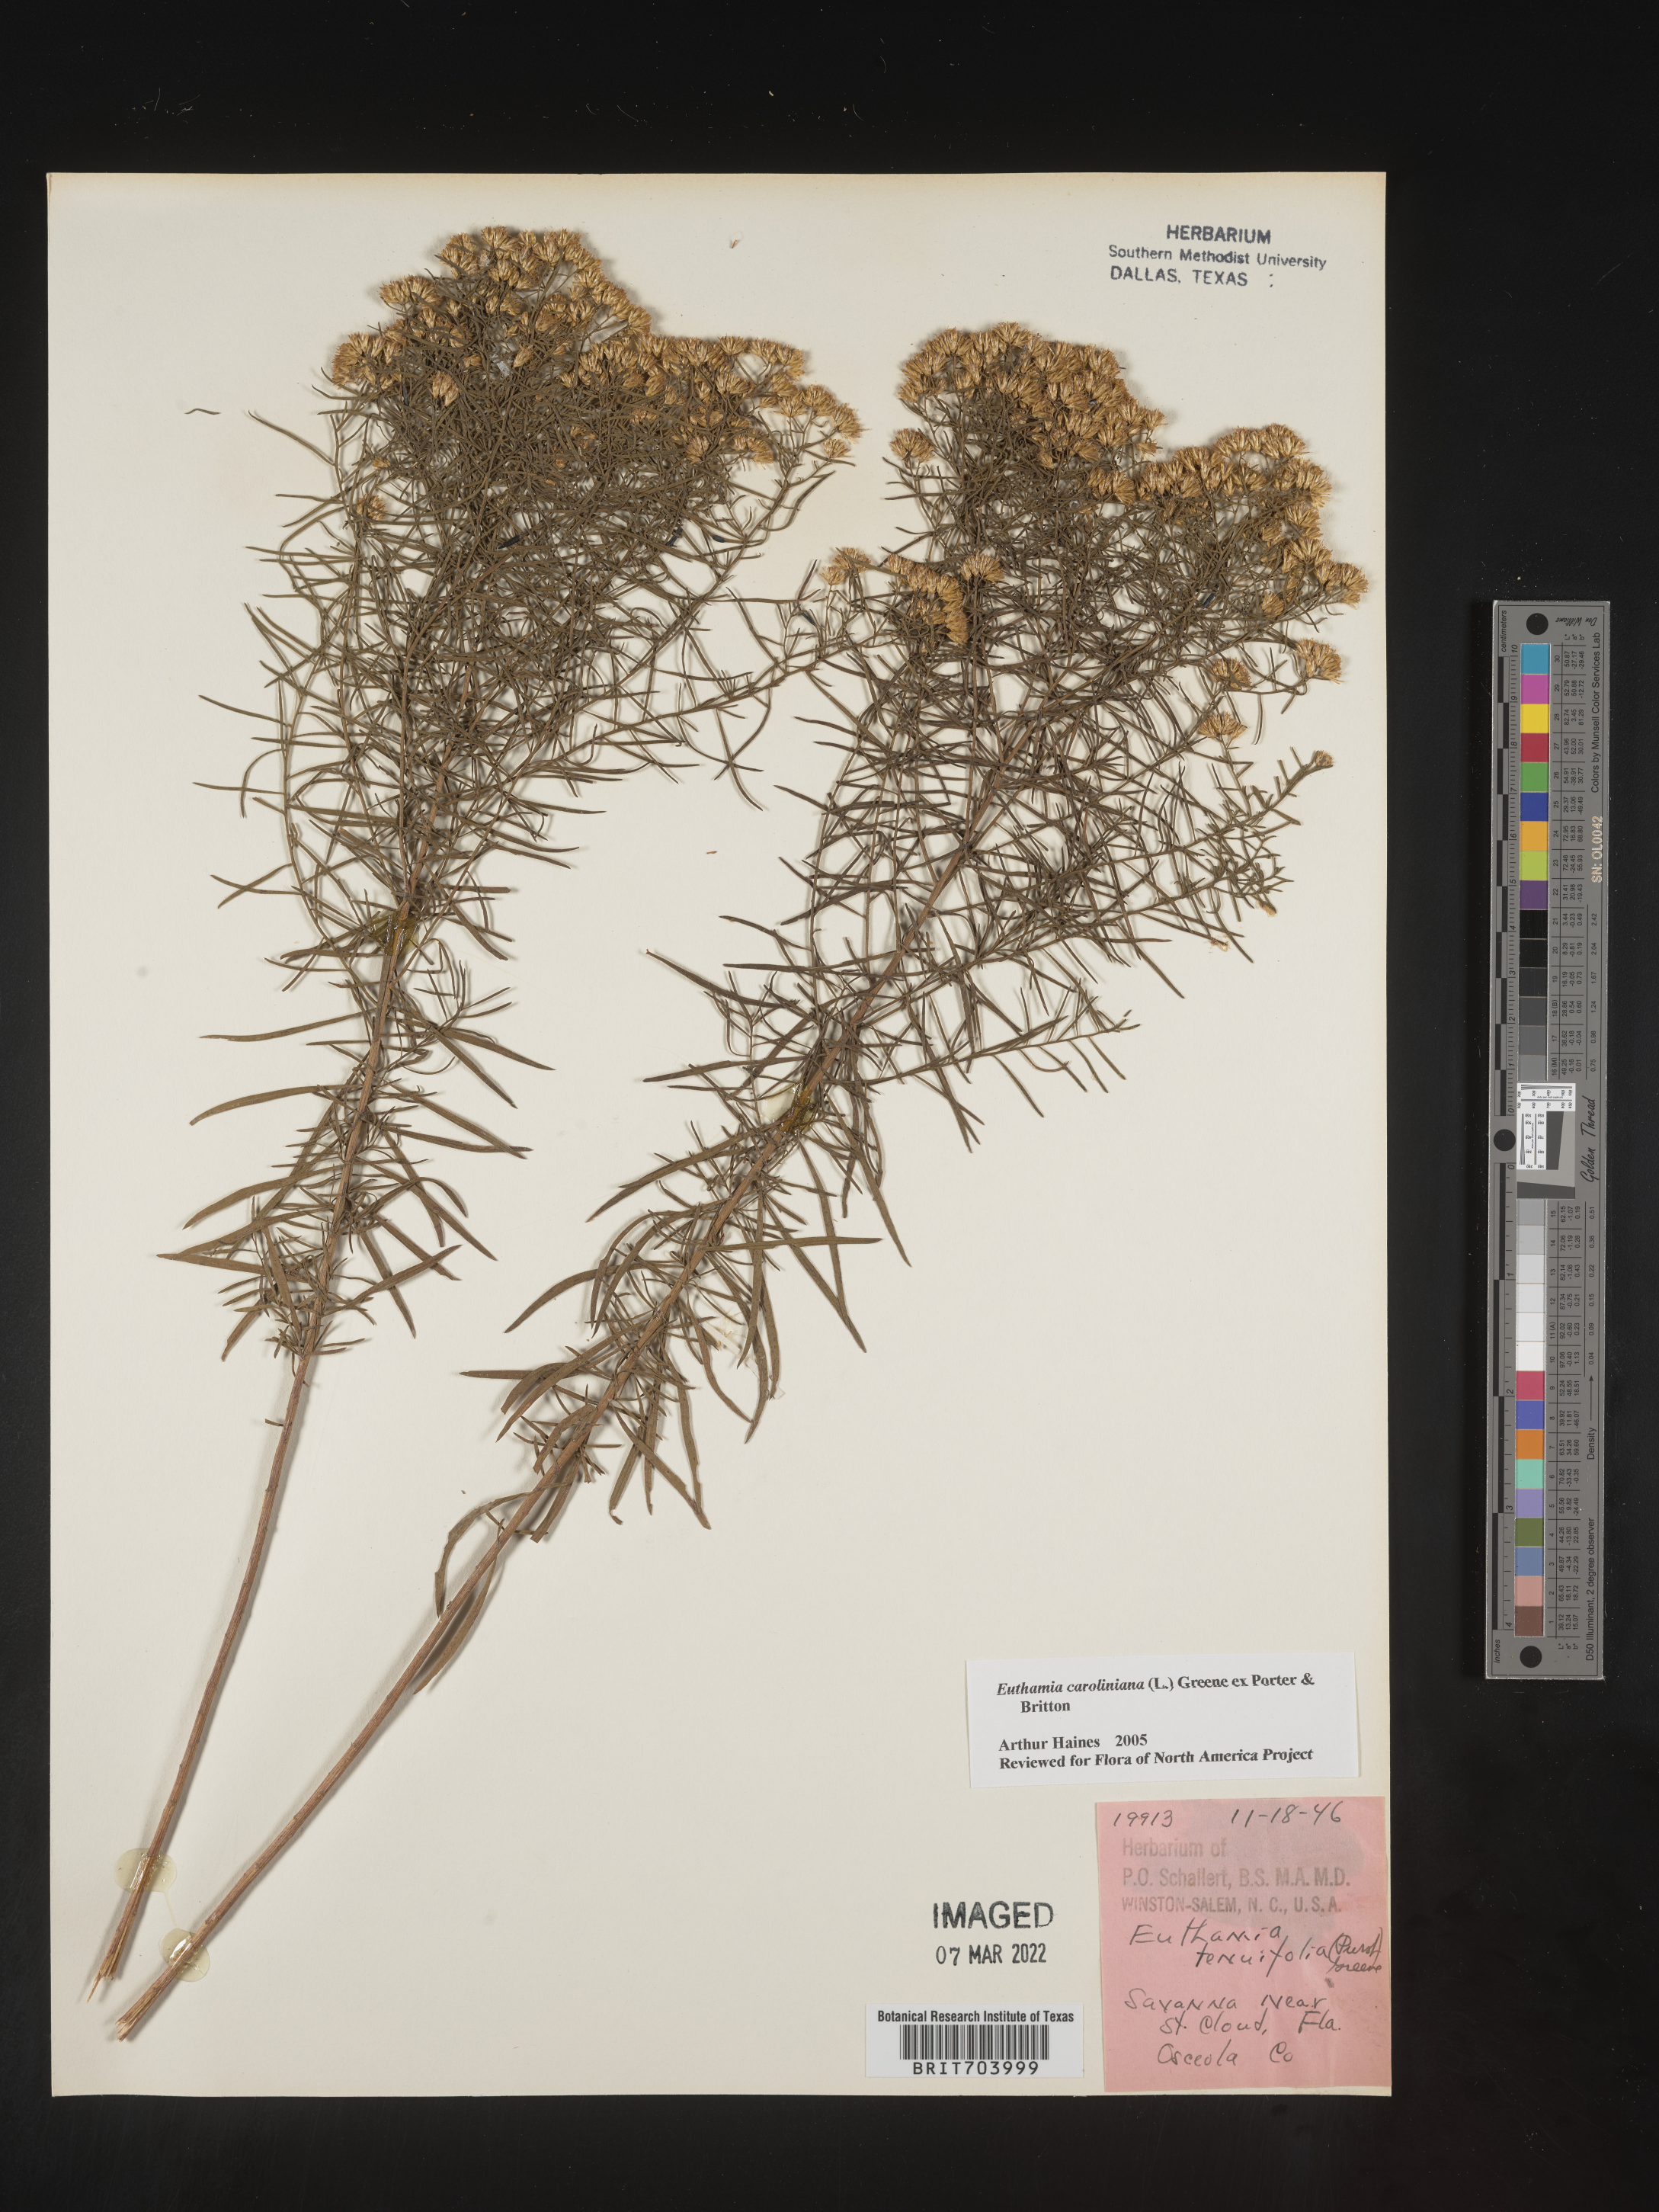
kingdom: Plantae
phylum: Tracheophyta
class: Magnoliopsida
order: Asterales
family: Asteraceae
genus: Euthamia
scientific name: Euthamia caroliniana
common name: Coastal plain goldentop
